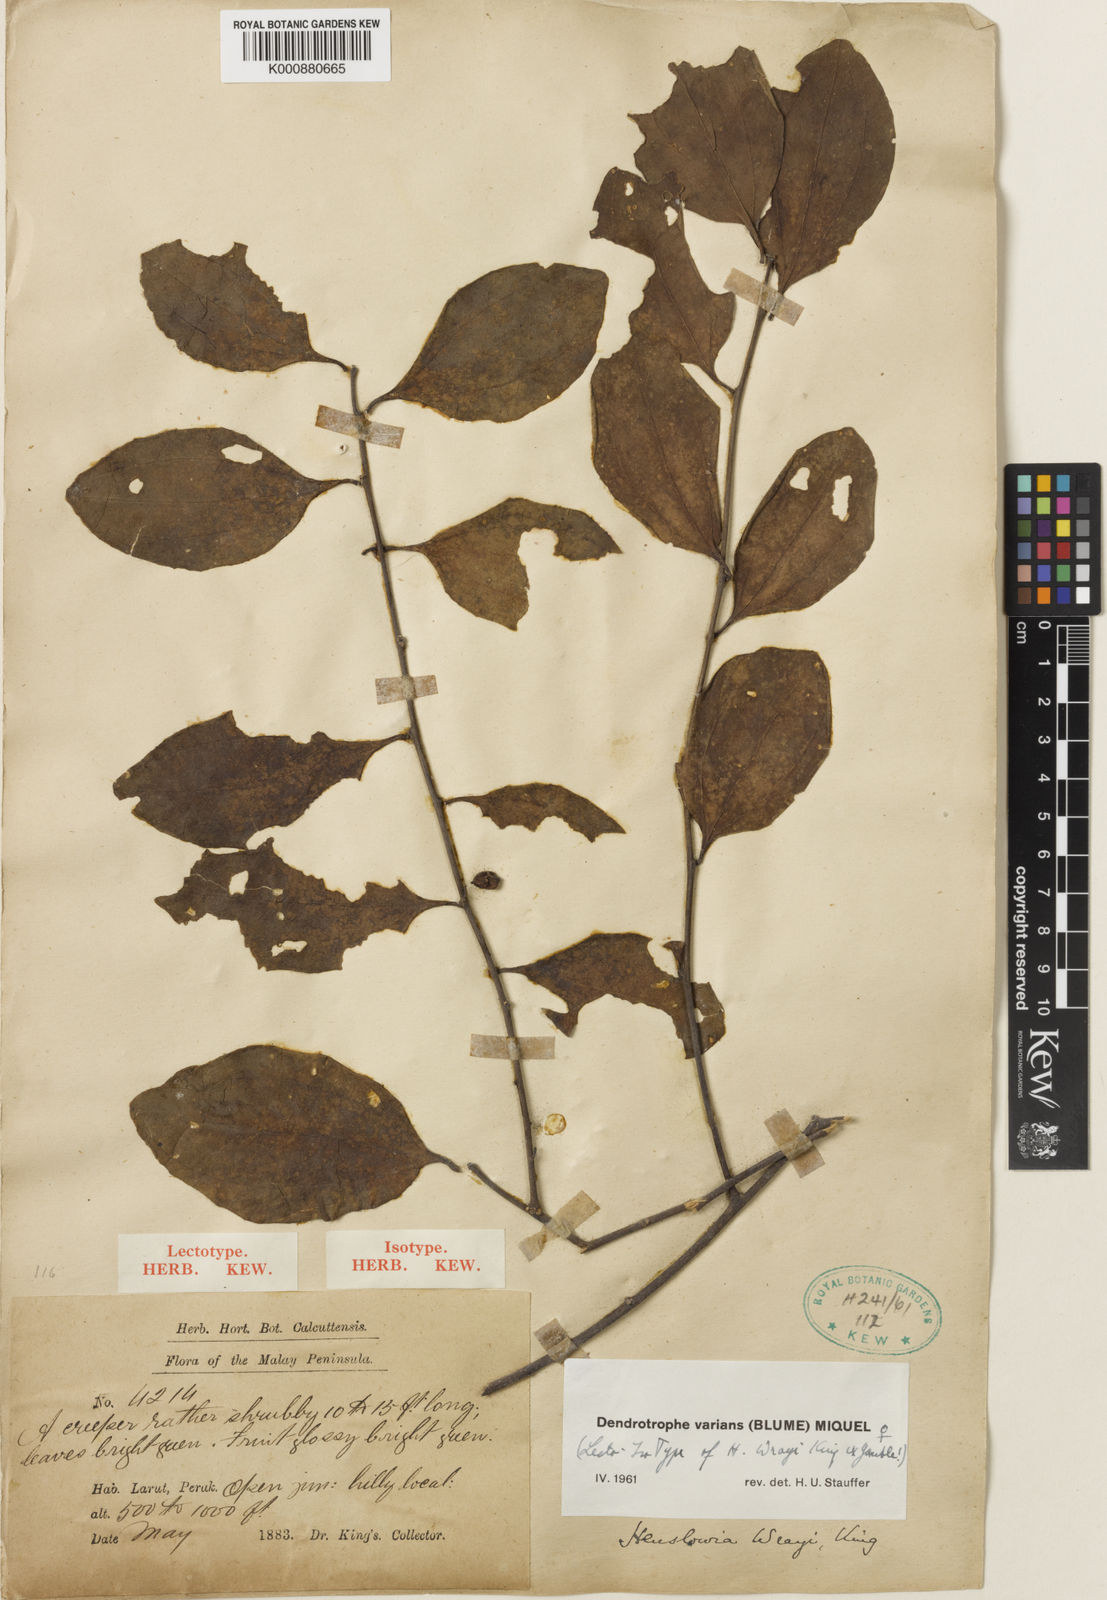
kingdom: Plantae
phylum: Tracheophyta
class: Magnoliopsida
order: Santalales
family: Amphorogynaceae
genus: Dendrotrophe
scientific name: Dendrotrophe varians
